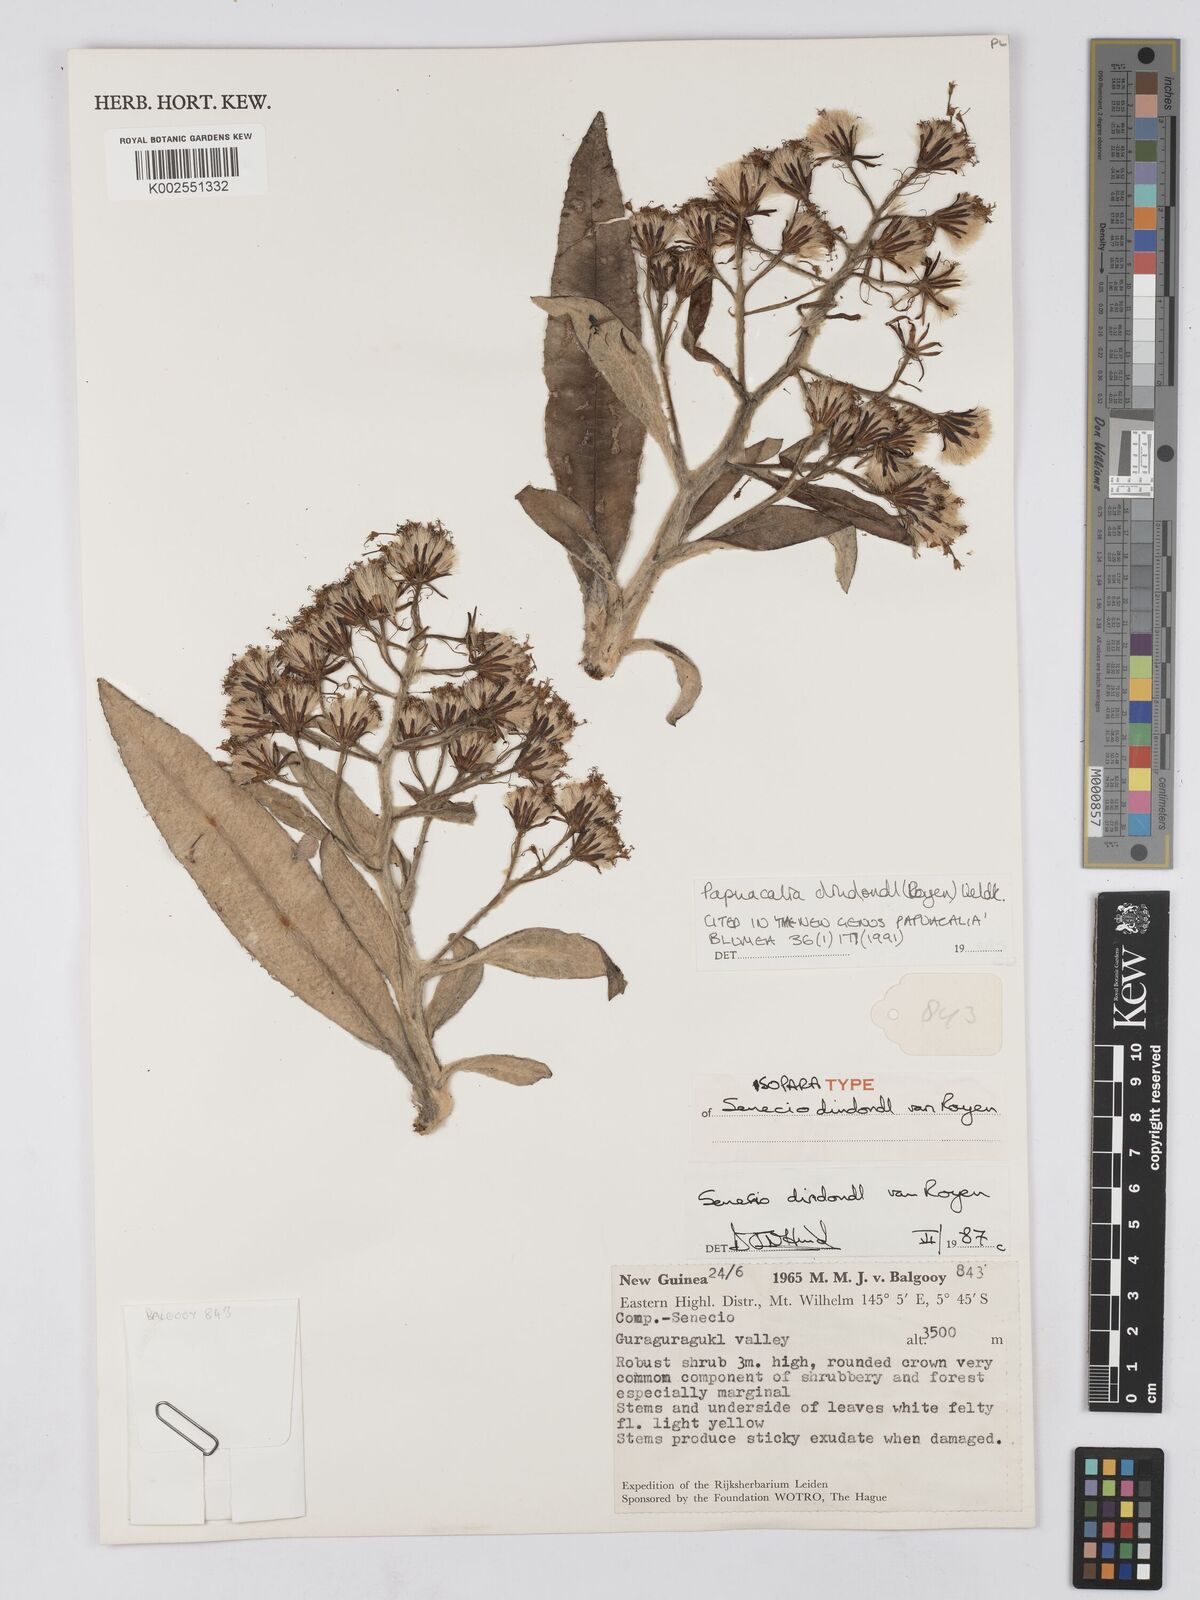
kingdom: Plantae
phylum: Tracheophyta
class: Magnoliopsida
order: Asterales
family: Asteraceae
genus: Papuacalia
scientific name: Papuacalia dindondl
